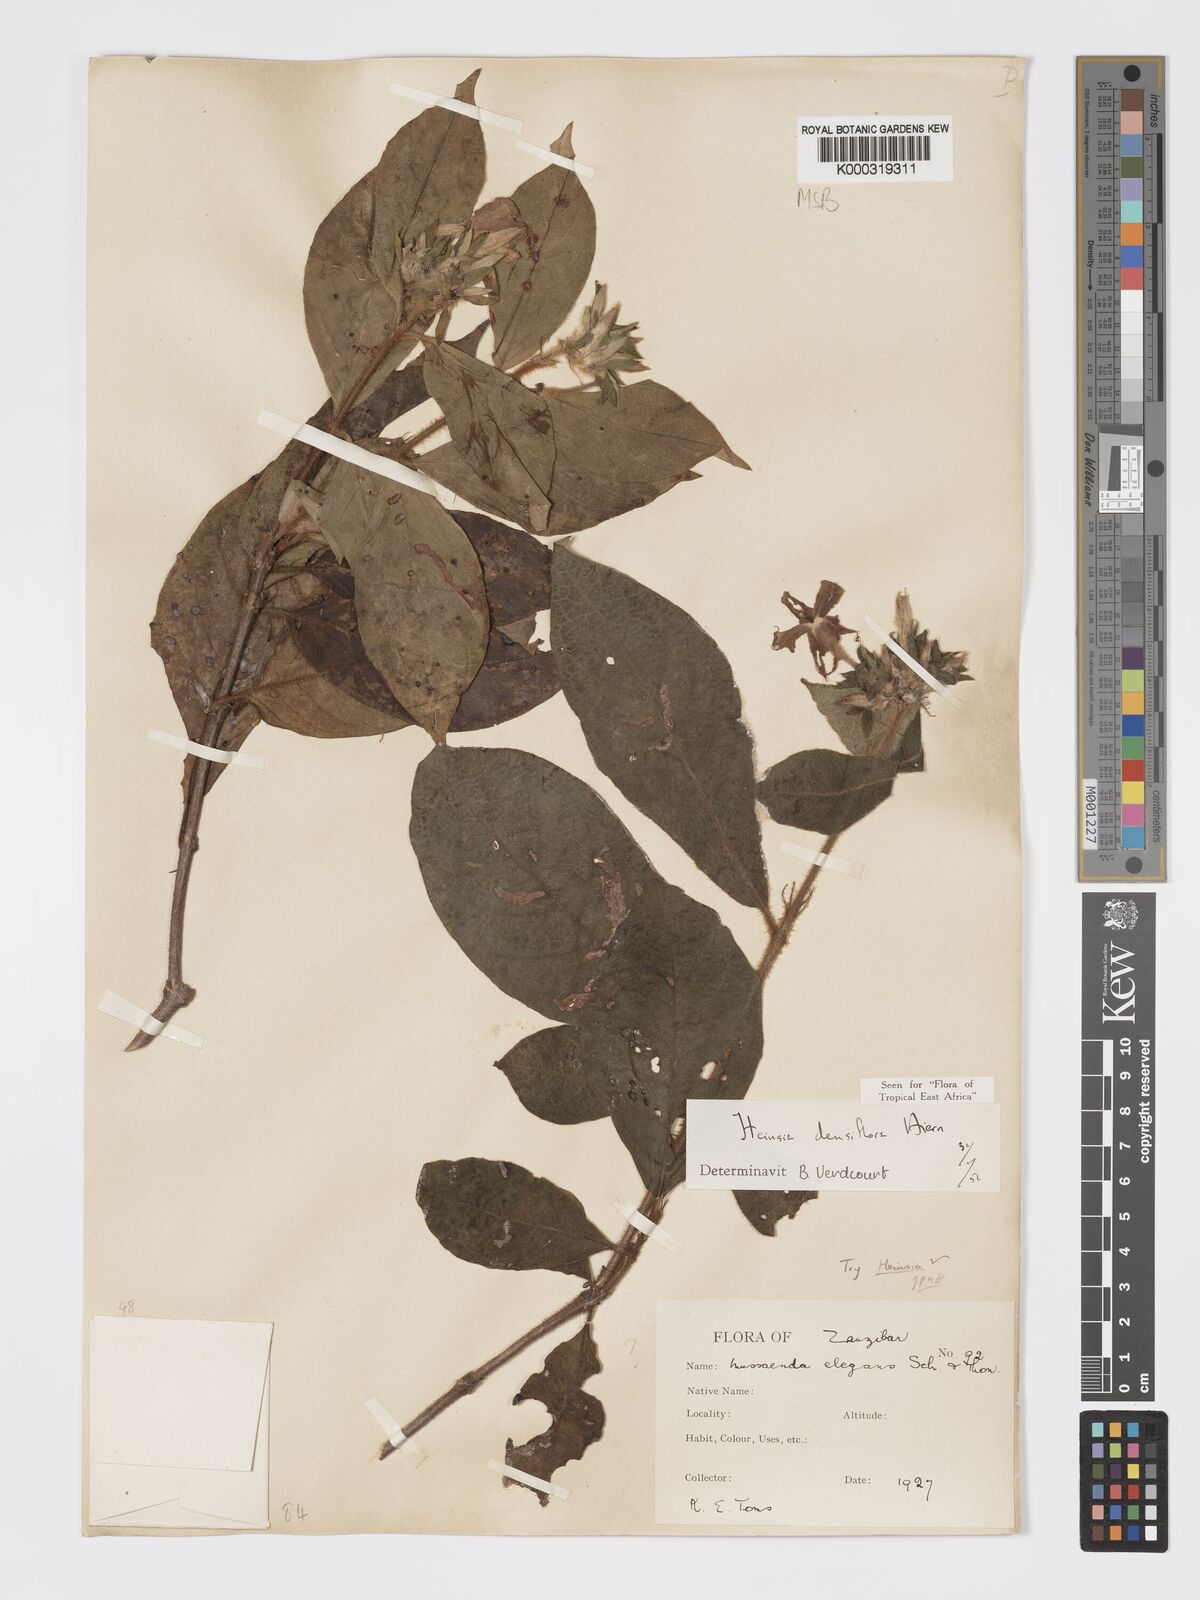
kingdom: Plantae
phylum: Tracheophyta
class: Magnoliopsida
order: Gentianales
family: Rubiaceae
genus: Heinsia
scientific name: Heinsia zanzibarica
